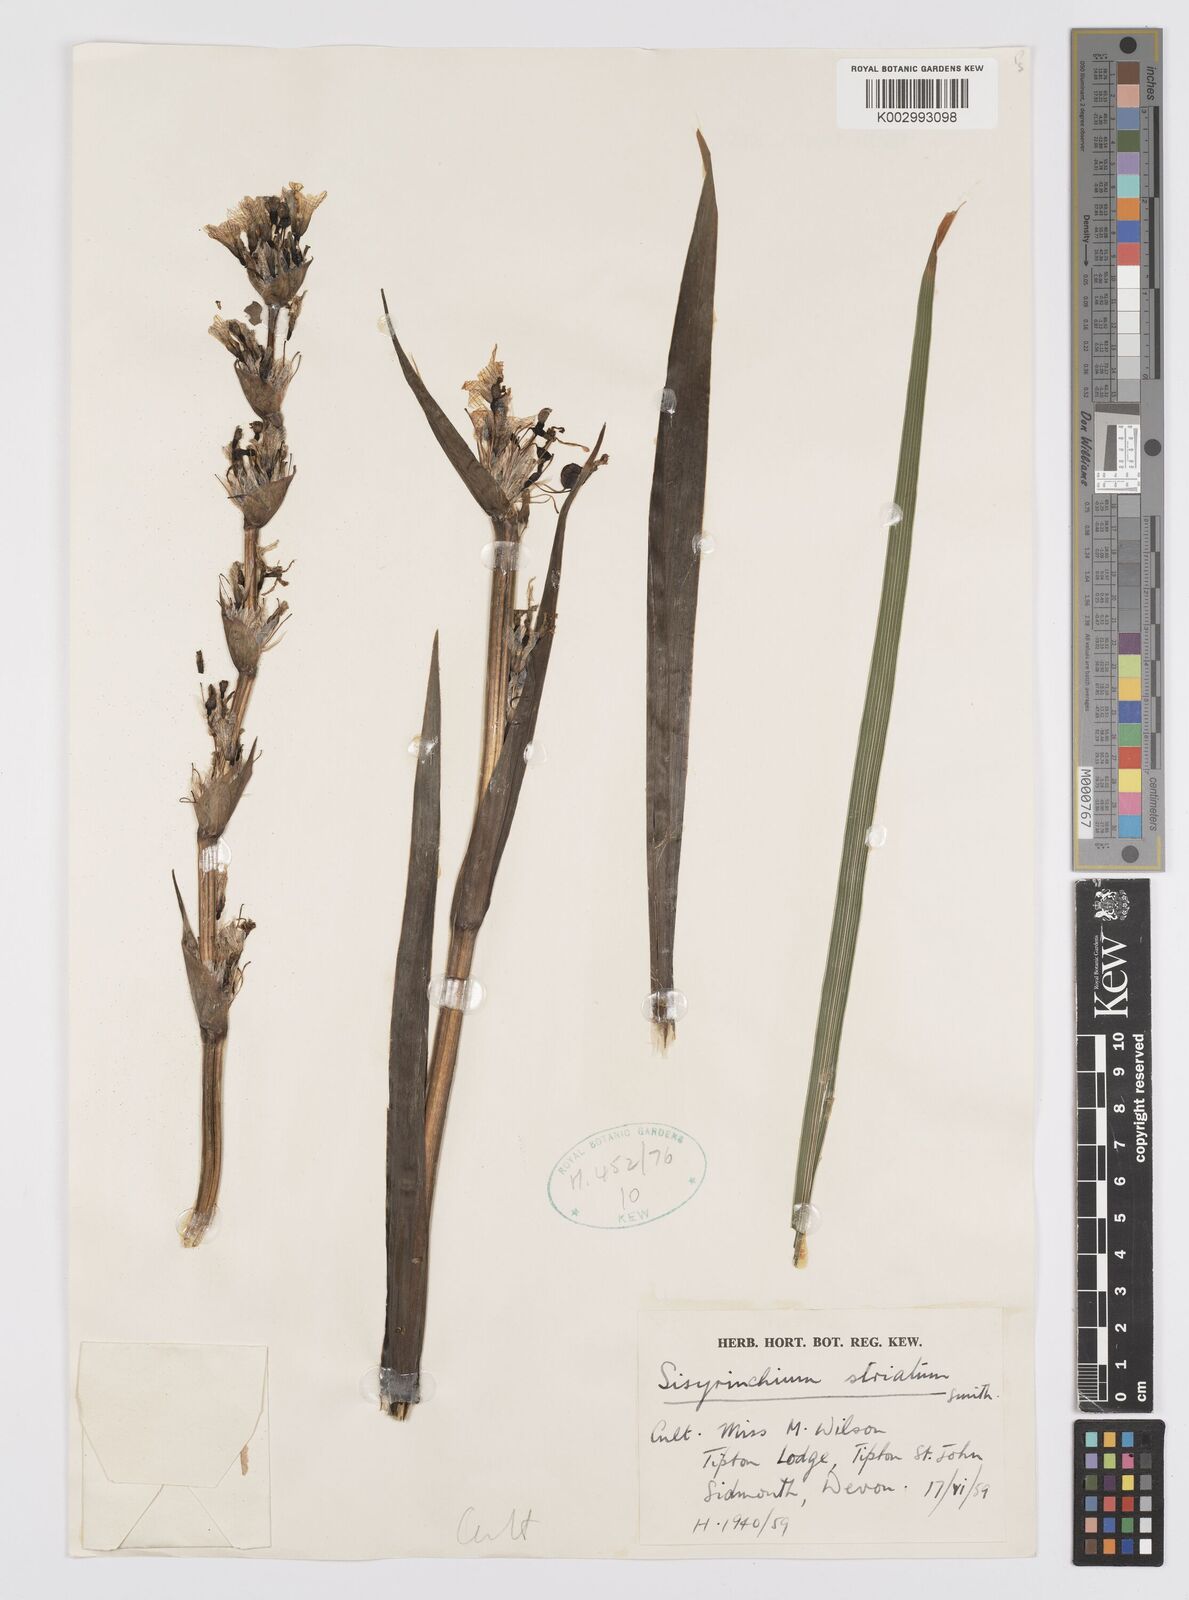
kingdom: Plantae
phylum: Tracheophyta
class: Liliopsida
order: Asparagales
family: Iridaceae
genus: Sisyrinchium
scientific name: Sisyrinchium striatum
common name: Pale yellow-eyed-grass
